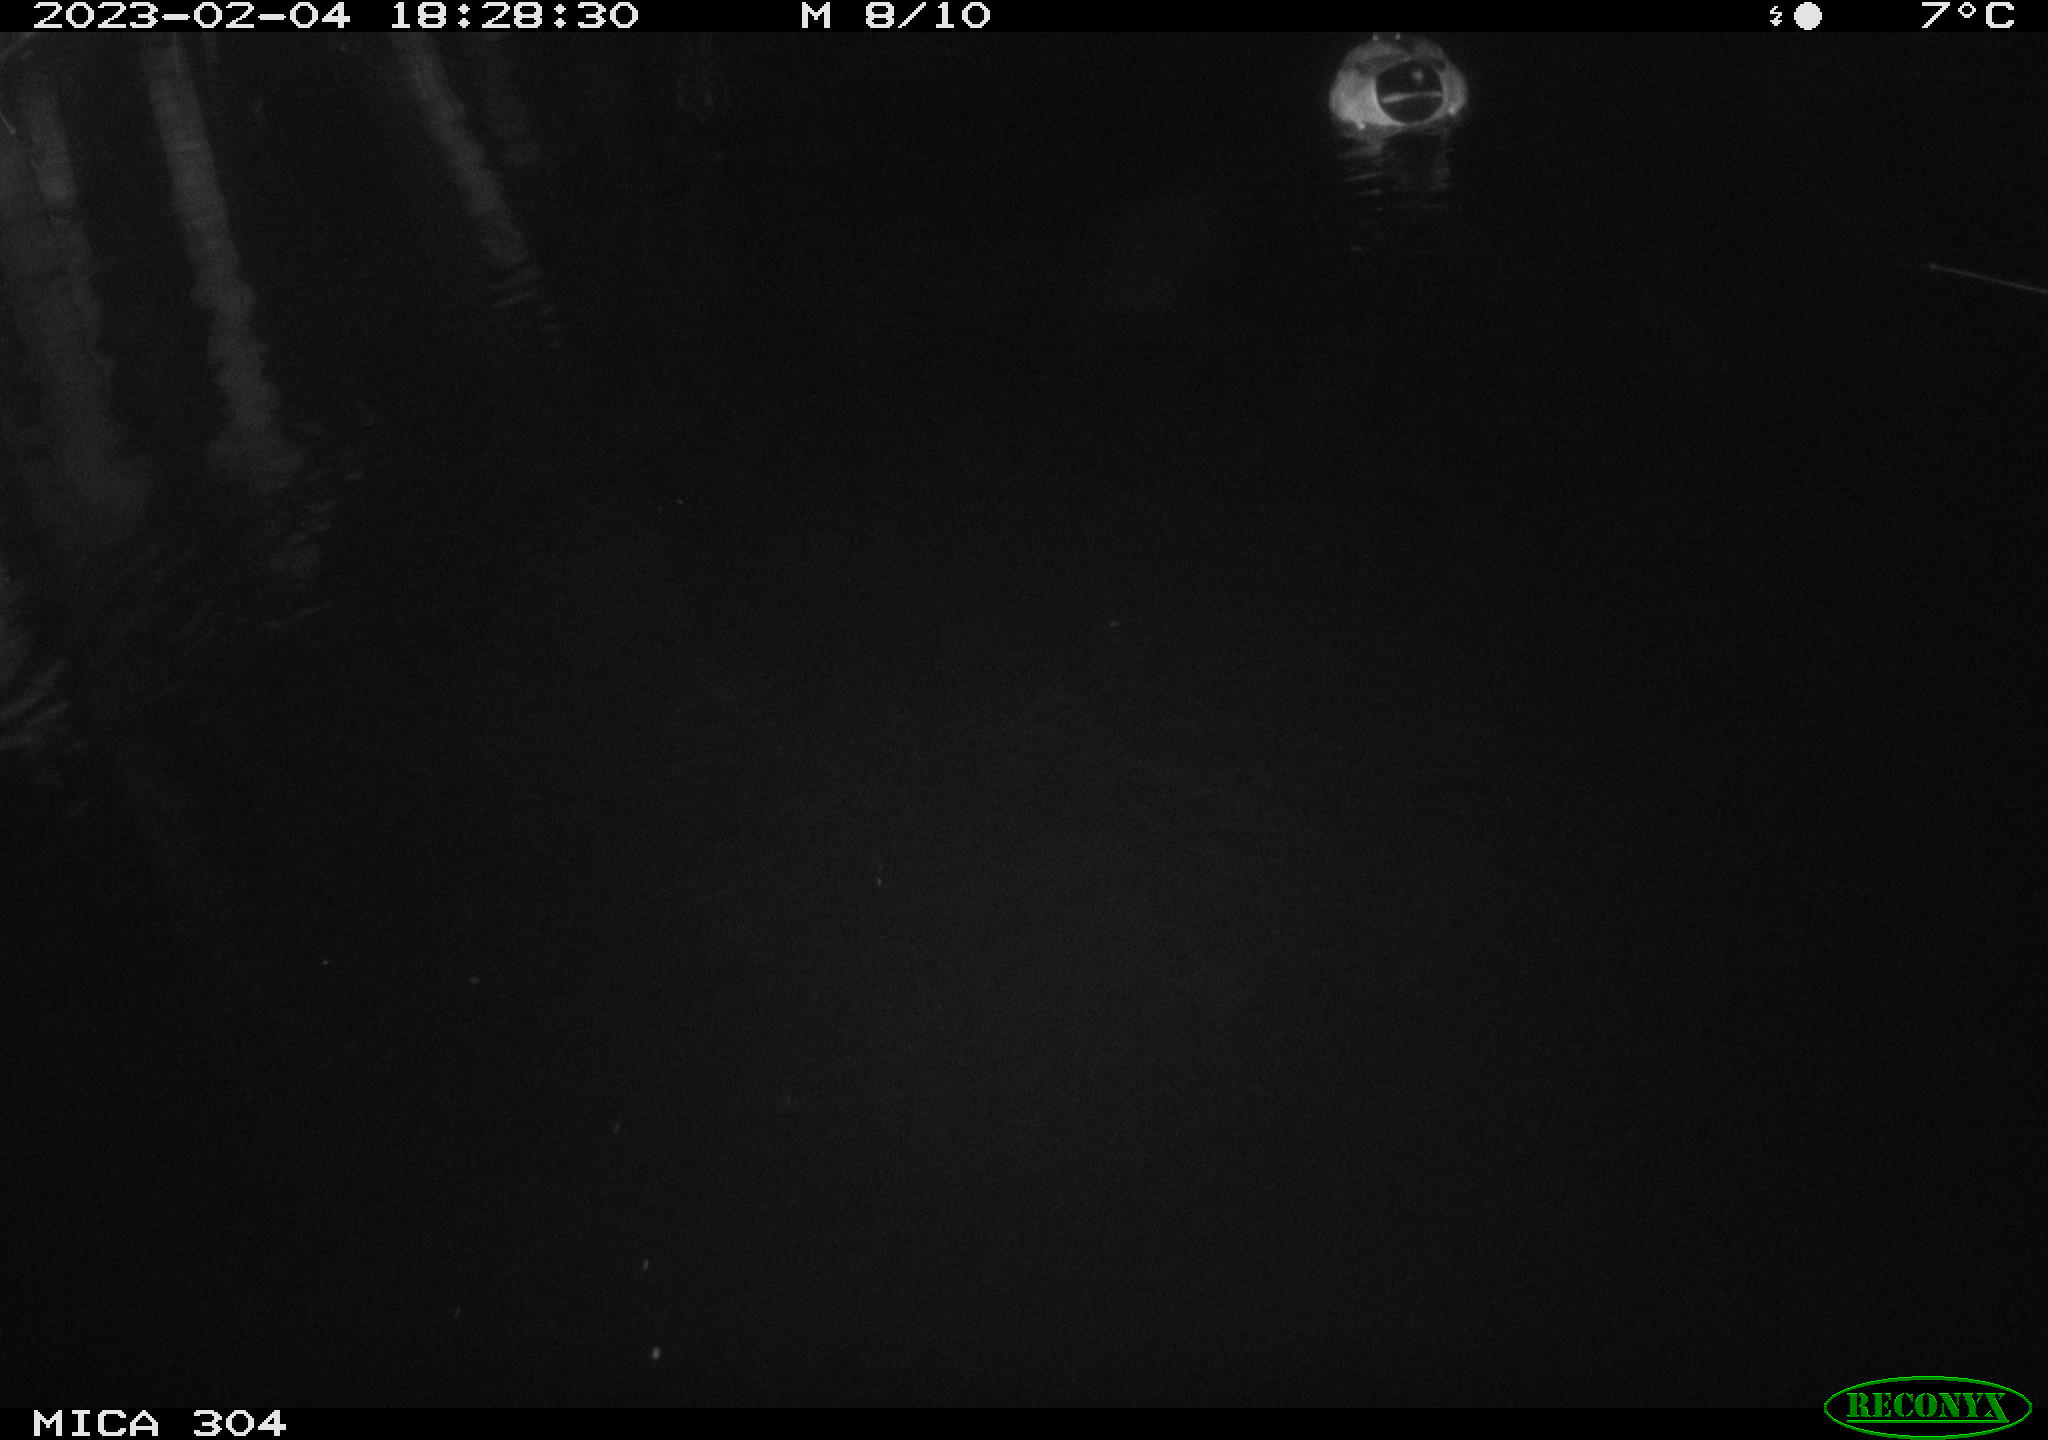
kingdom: Animalia
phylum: Chordata
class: Aves
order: Anseriformes
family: Anatidae
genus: Anas
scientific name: Anas
